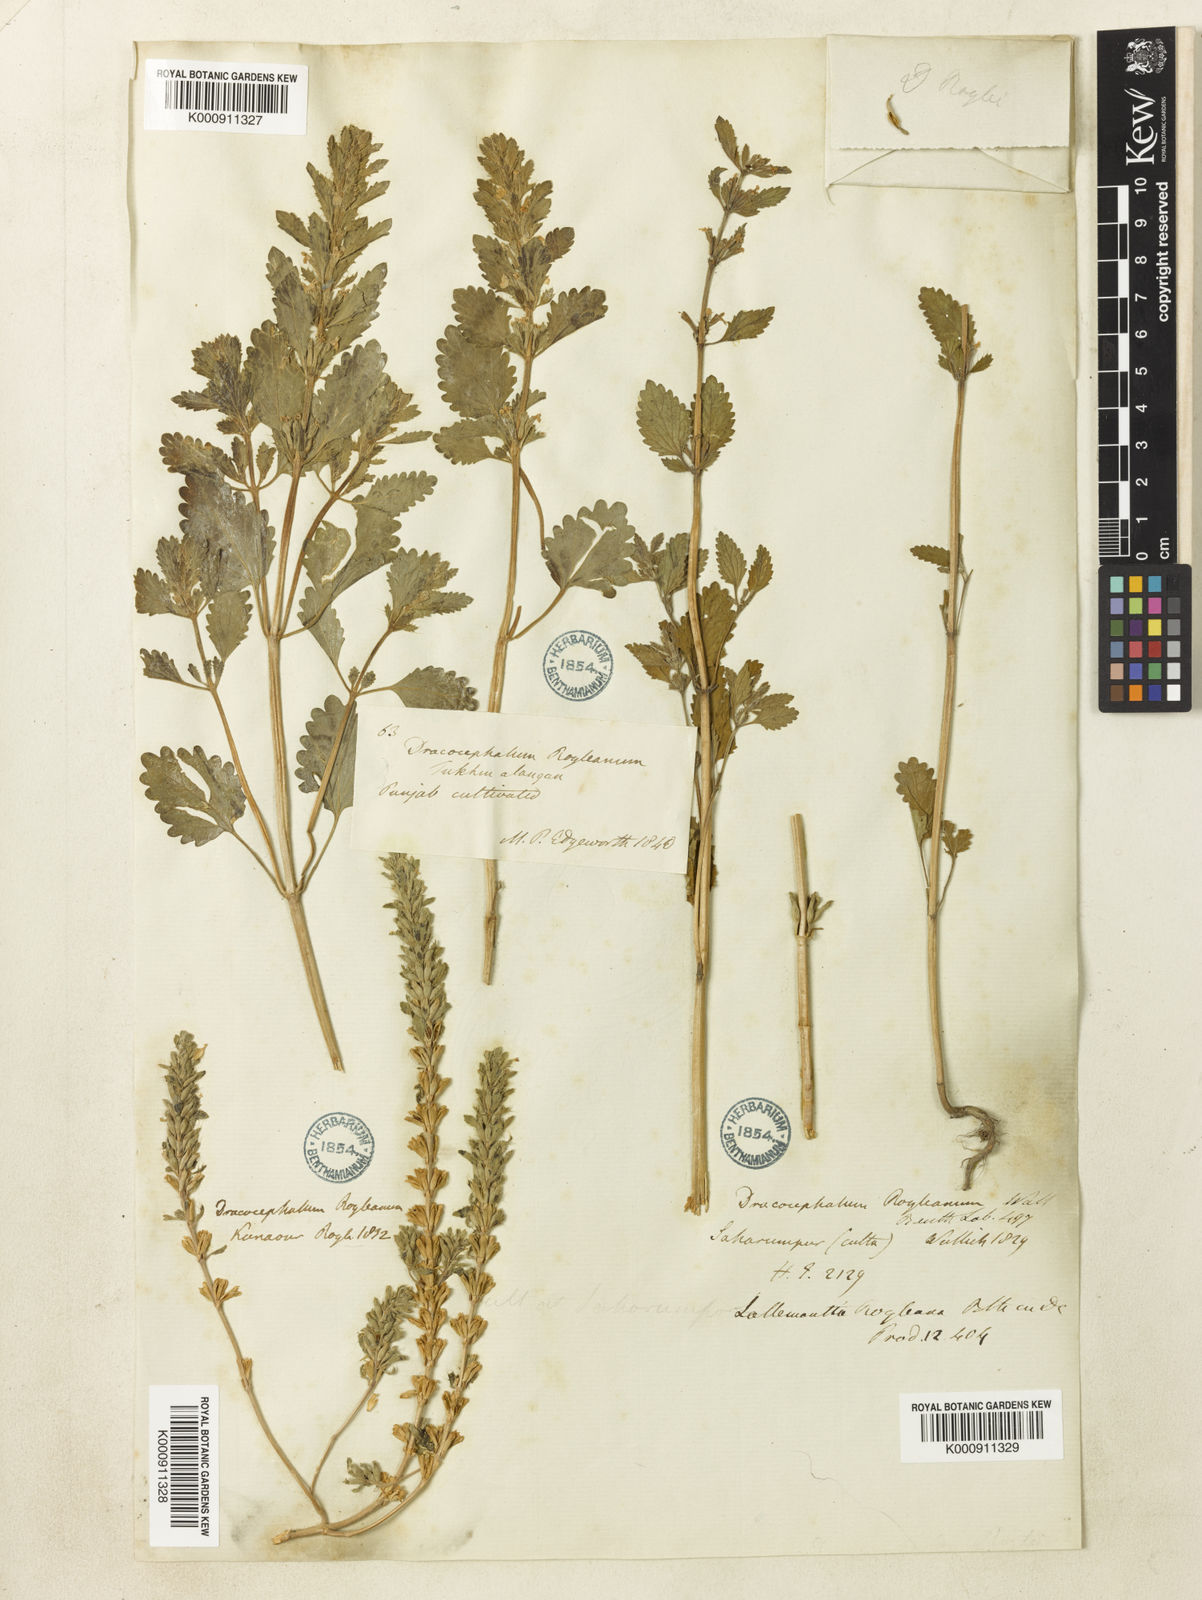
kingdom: Plantae
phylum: Tracheophyta
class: Magnoliopsida
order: Lamiales
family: Lamiaceae
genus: Lallemantia
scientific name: Lallemantia royleana
